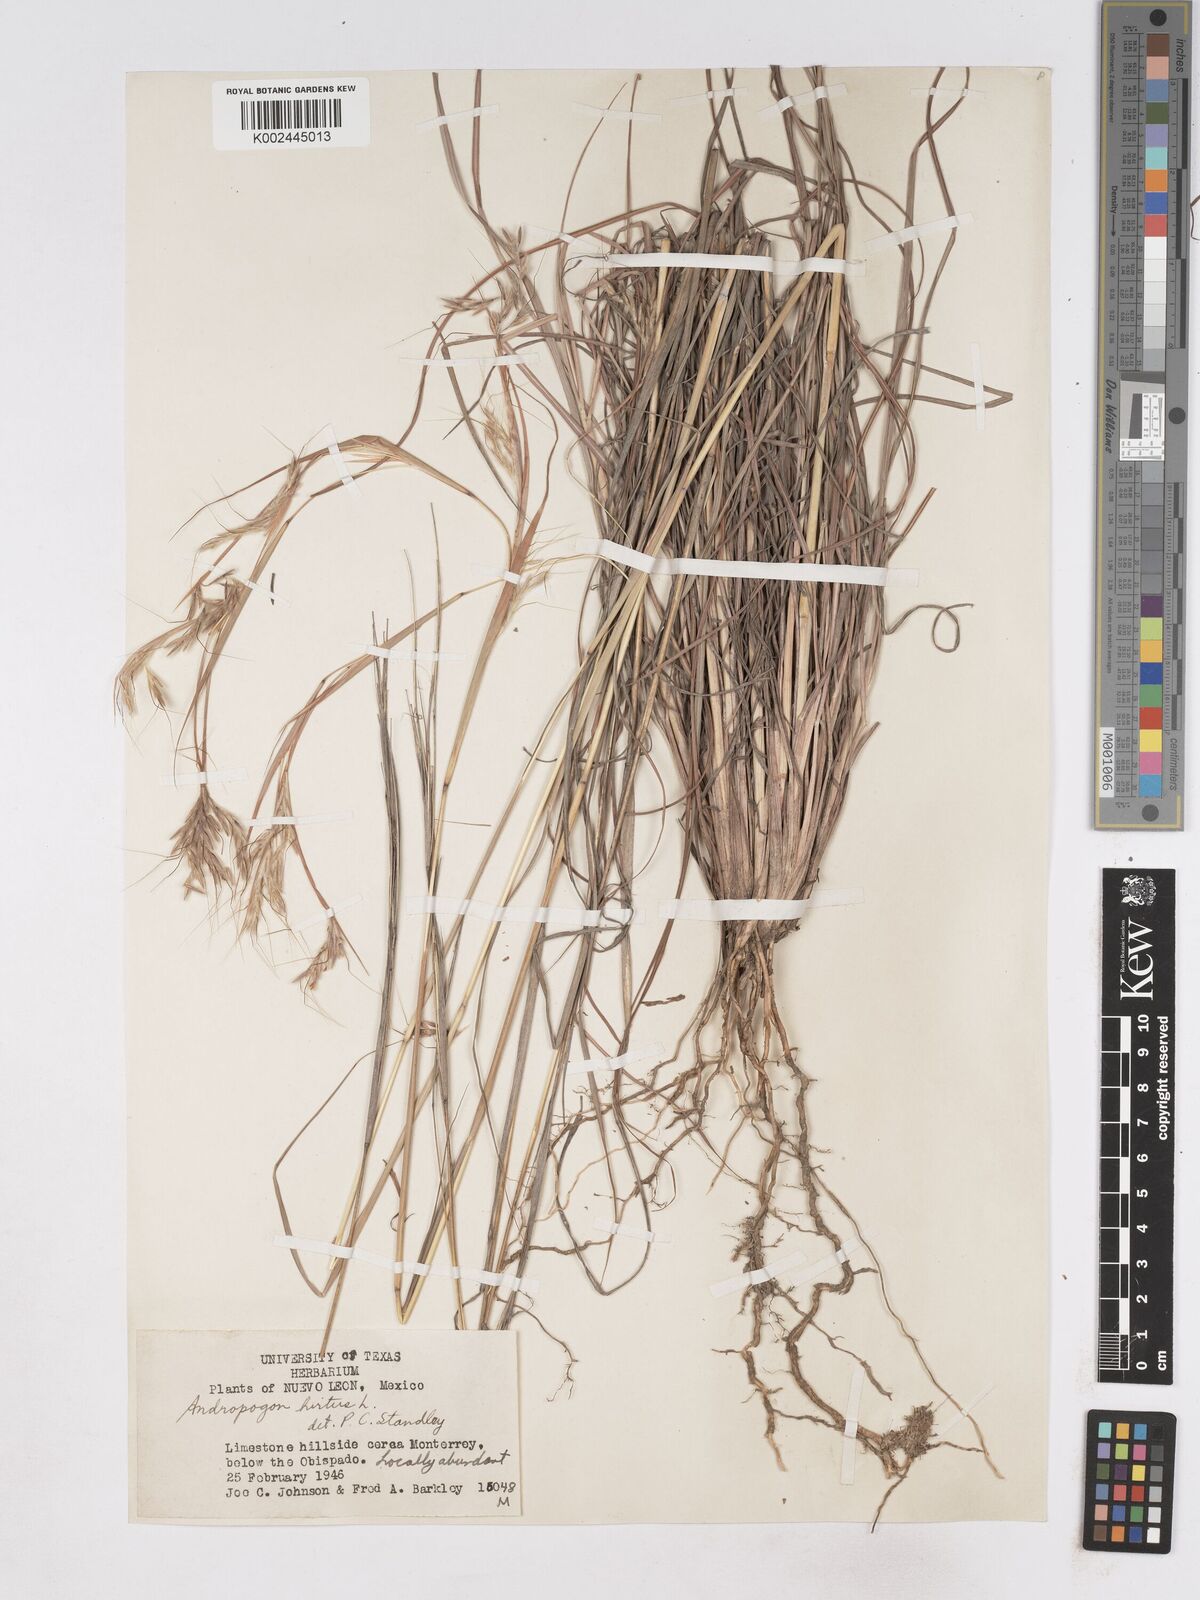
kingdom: Plantae
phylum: Tracheophyta
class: Liliopsida
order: Poales
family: Poaceae
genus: Hyparrhenia
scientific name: Hyparrhenia hirta
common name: Thatching grass
